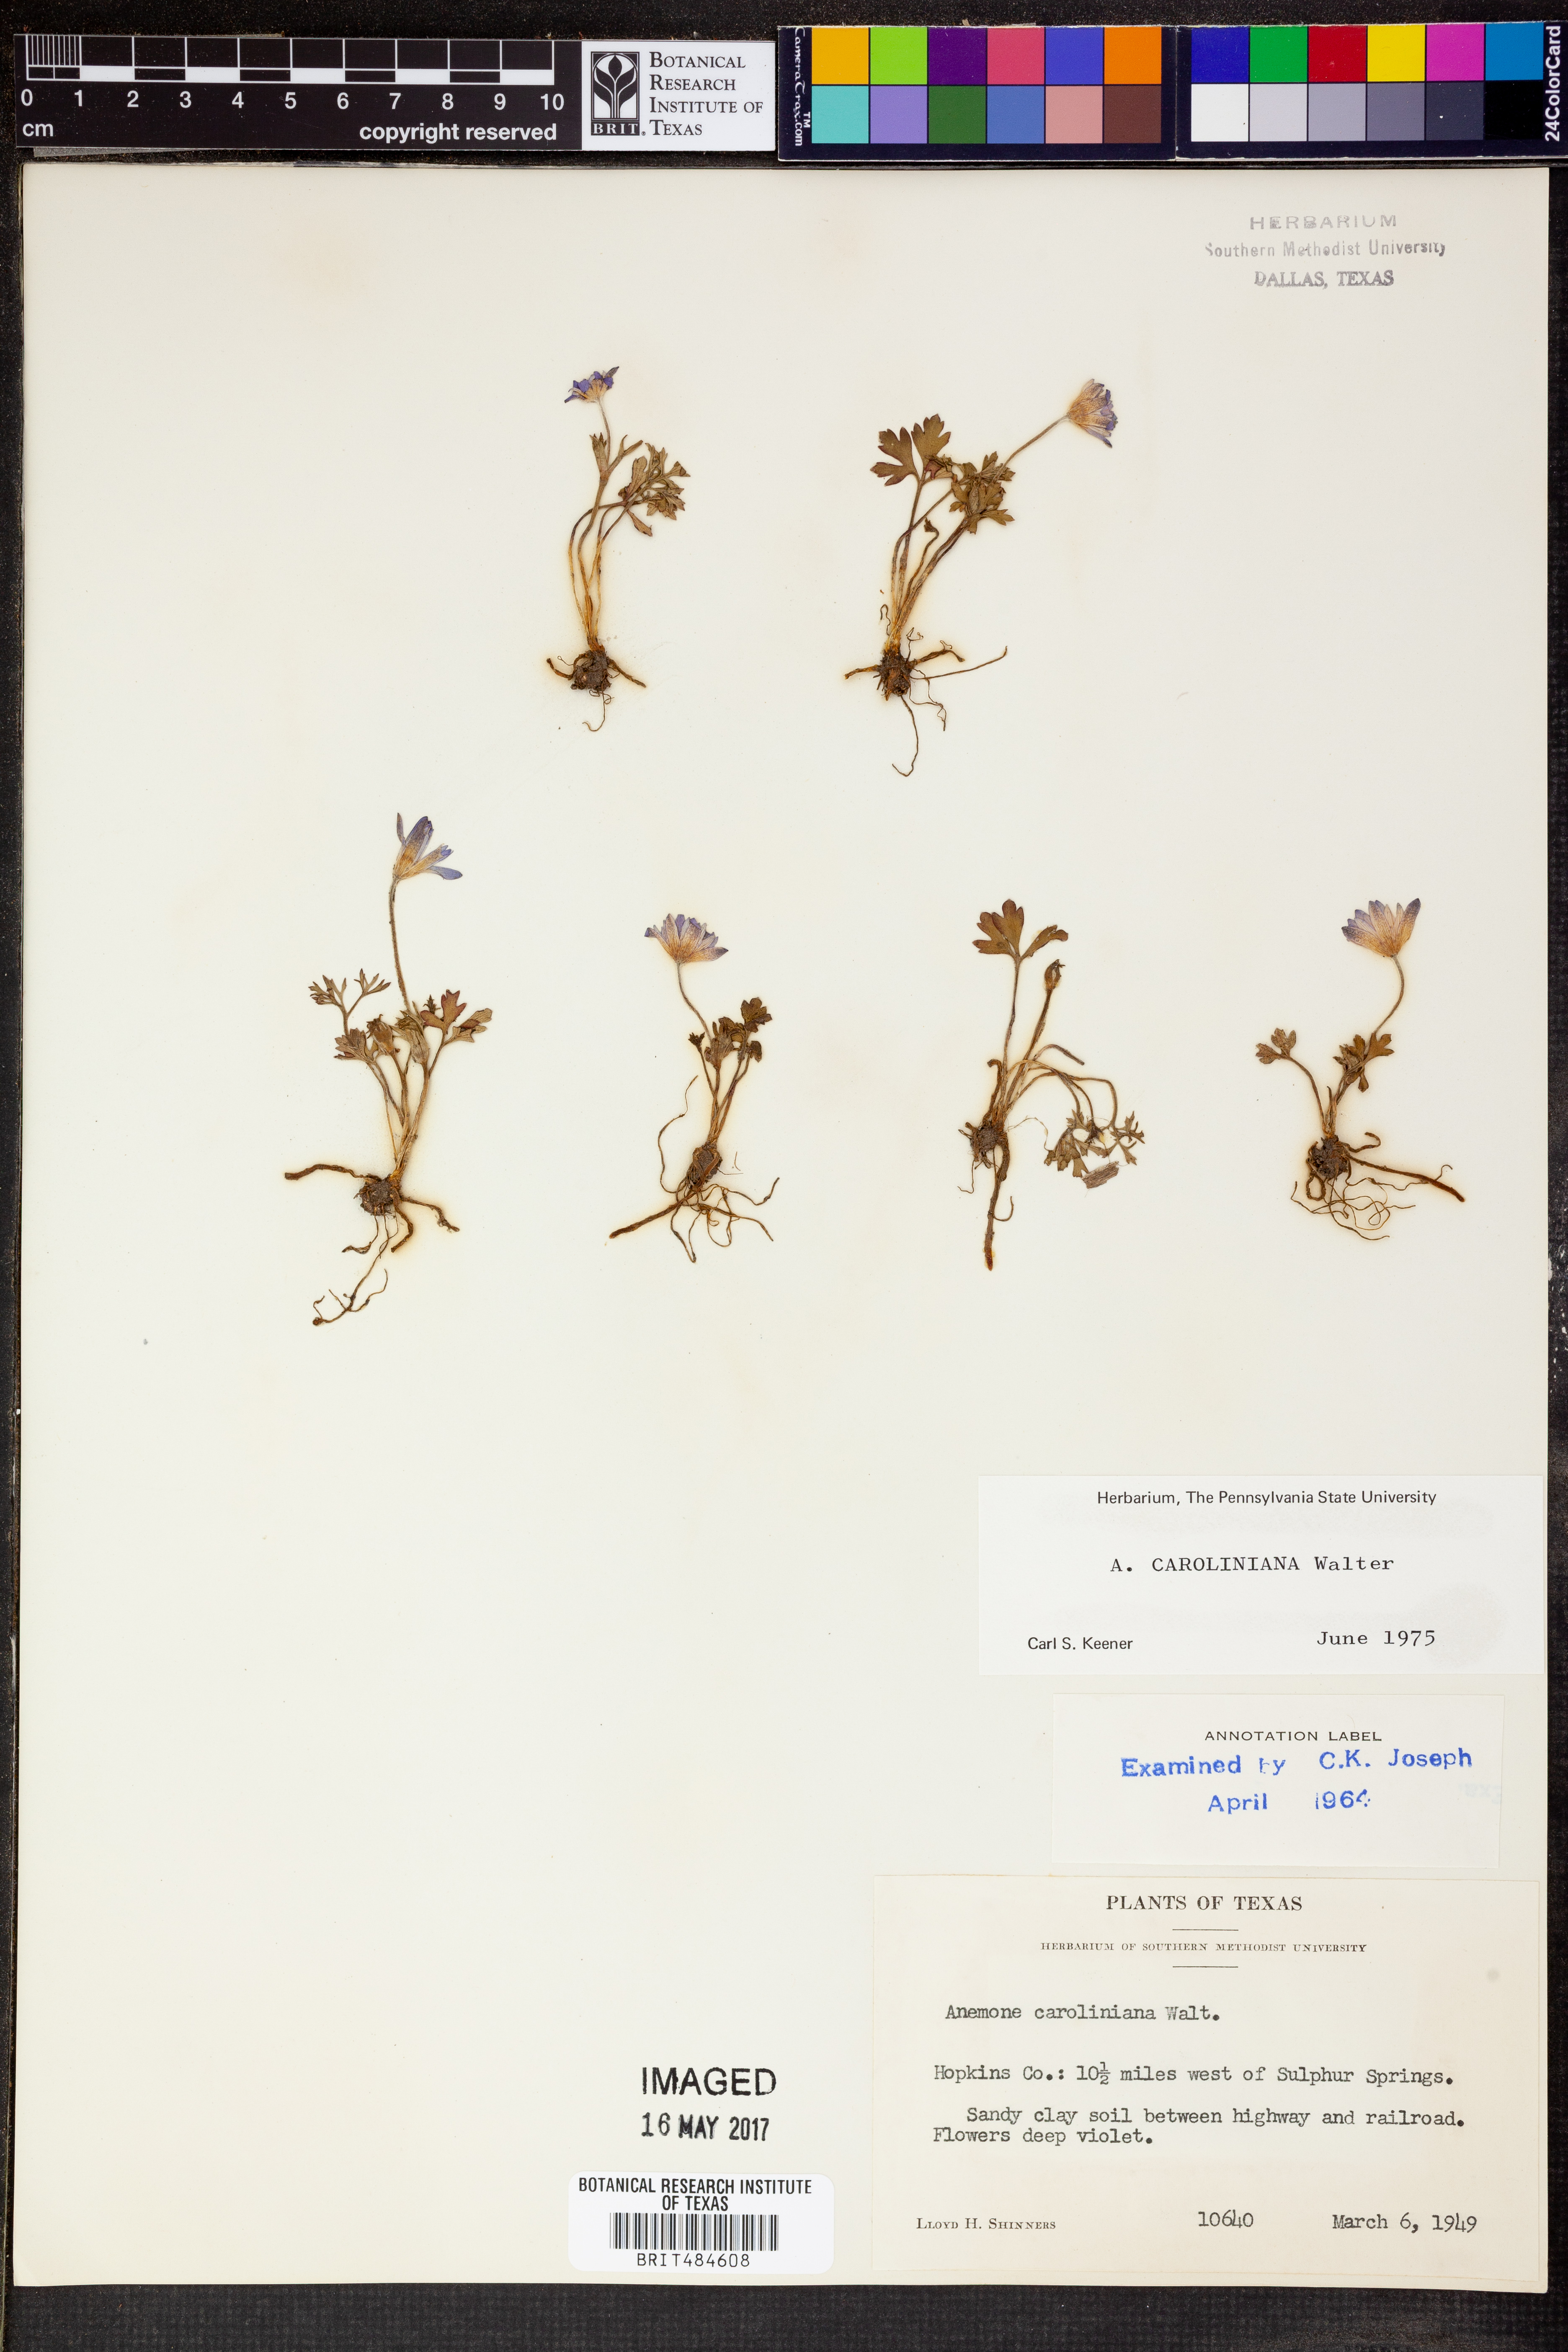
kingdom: Plantae
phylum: Tracheophyta
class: Magnoliopsida
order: Ranunculales
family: Ranunculaceae
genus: Anemone
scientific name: Anemone caroliniana
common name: Carolina anemone
